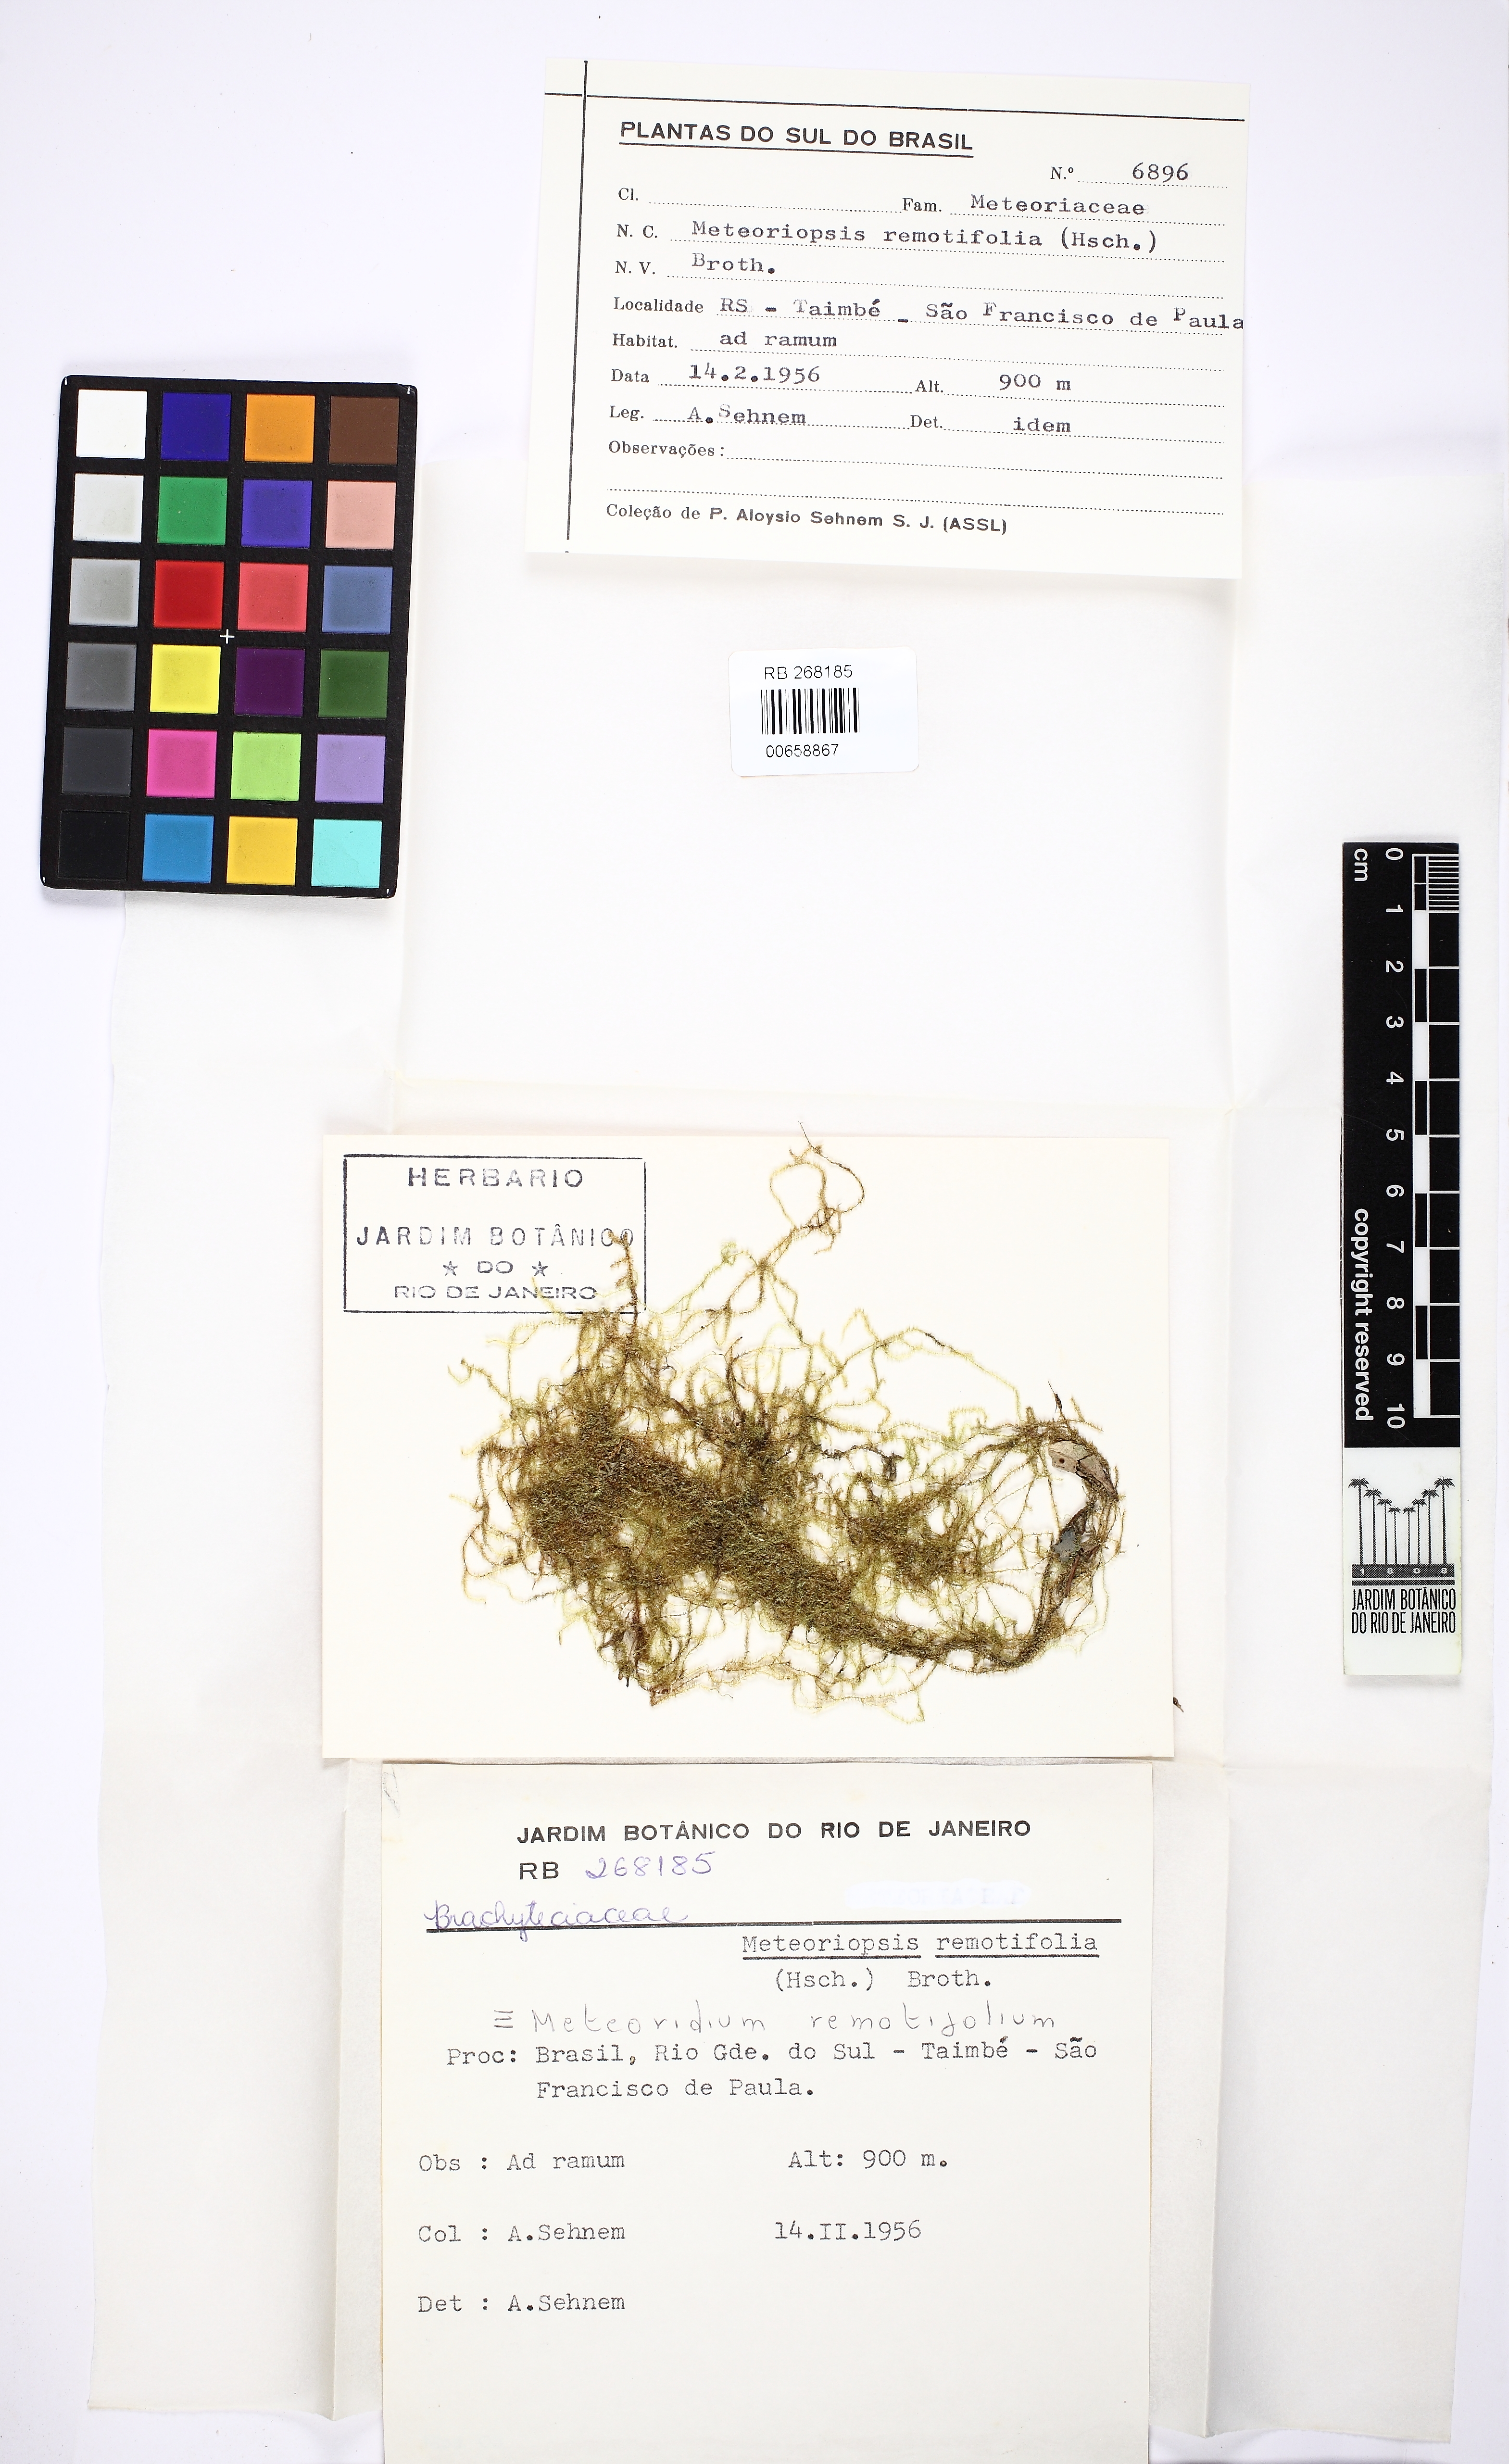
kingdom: Plantae
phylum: Bryophyta
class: Bryopsida
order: Hypnales
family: Brachytheciaceae
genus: Meteoridium
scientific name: Meteoridium remotifolium
